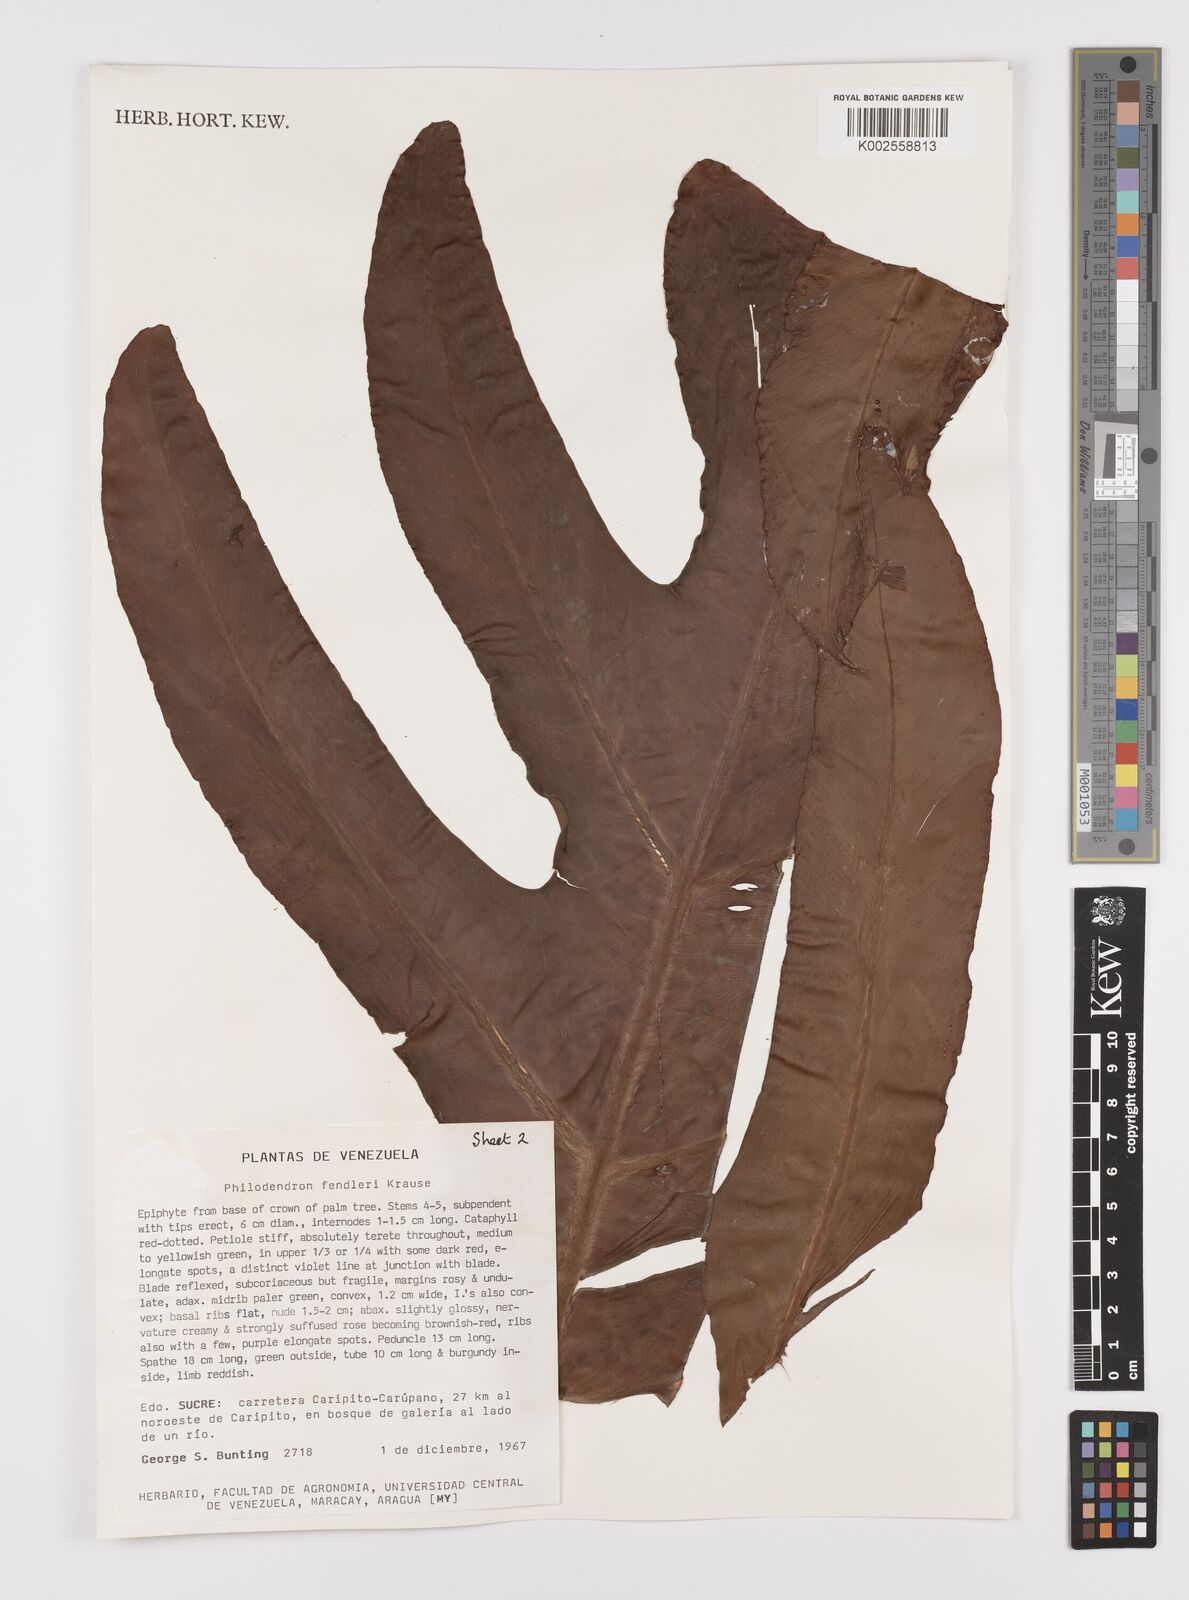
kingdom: Plantae
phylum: Tracheophyta
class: Liliopsida
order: Alismatales
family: Araceae
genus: Philodendron
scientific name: Philodendron fendleri
